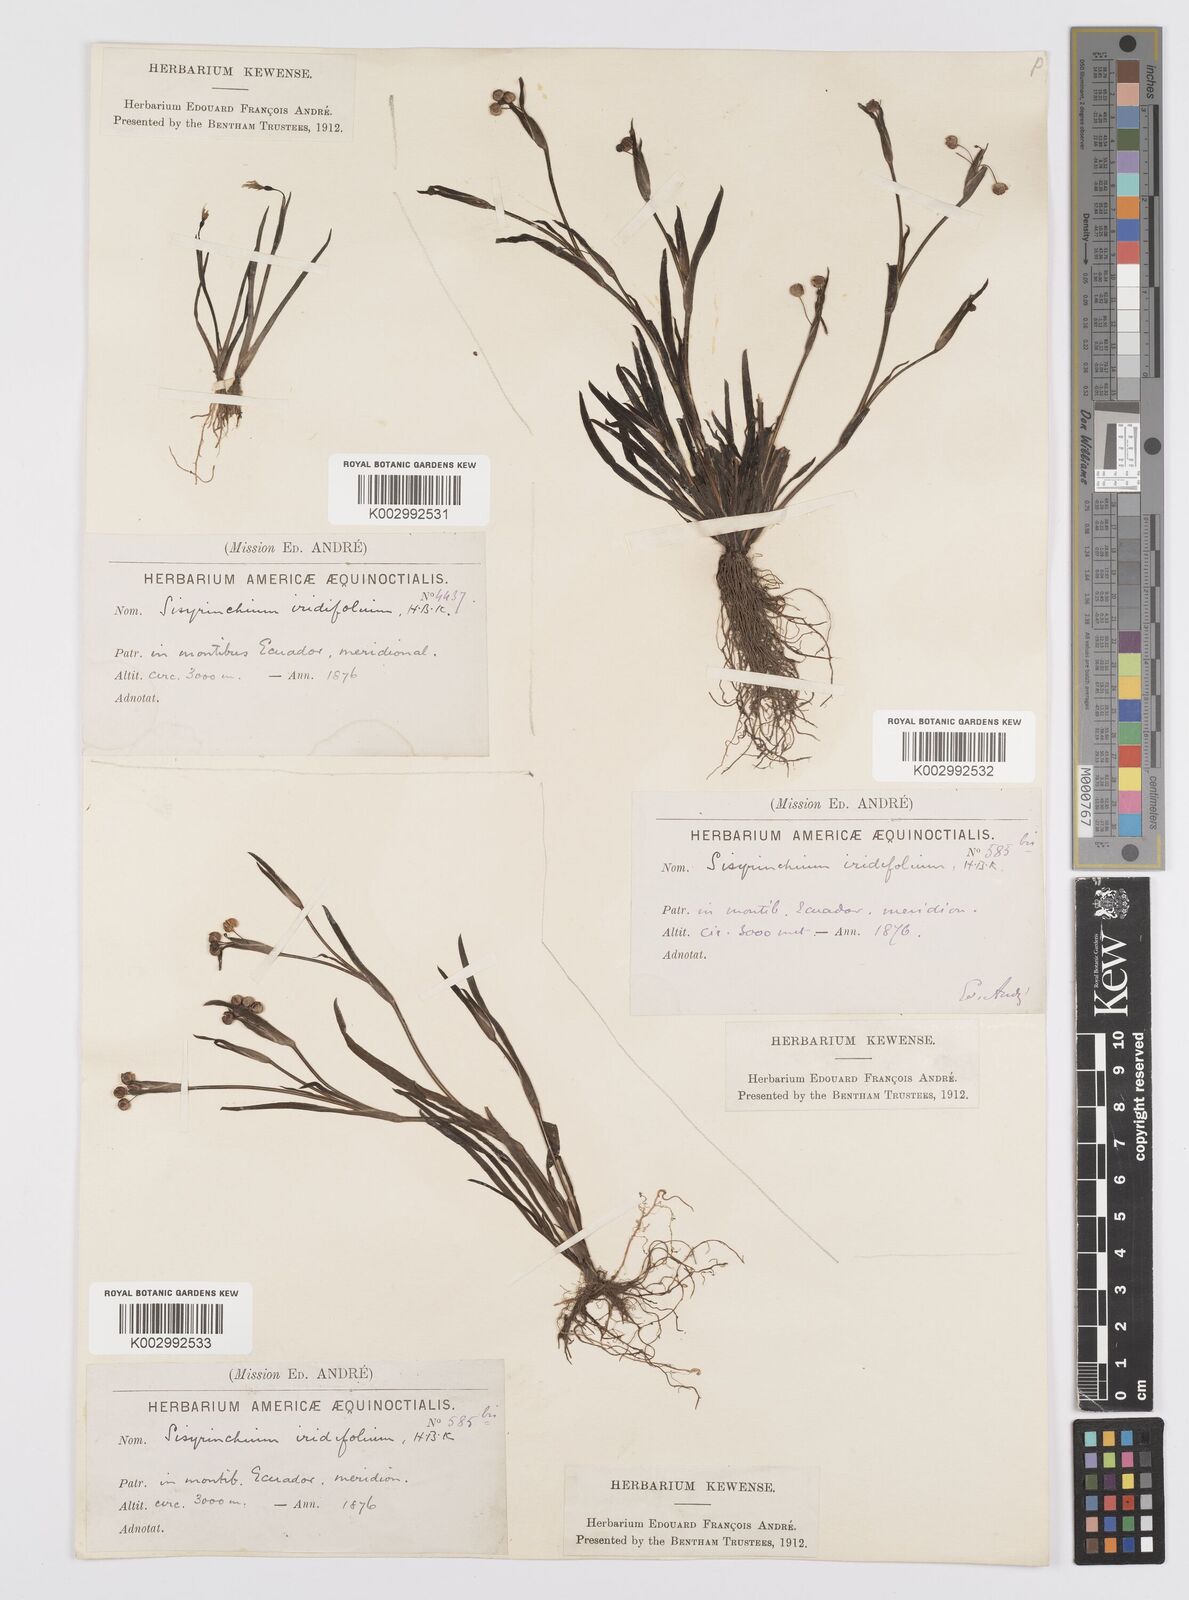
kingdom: Plantae
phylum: Tracheophyta
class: Liliopsida
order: Asparagales
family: Iridaceae
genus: Sisyrinchium
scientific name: Sisyrinchium micranthum
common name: Bermuda pigroot
